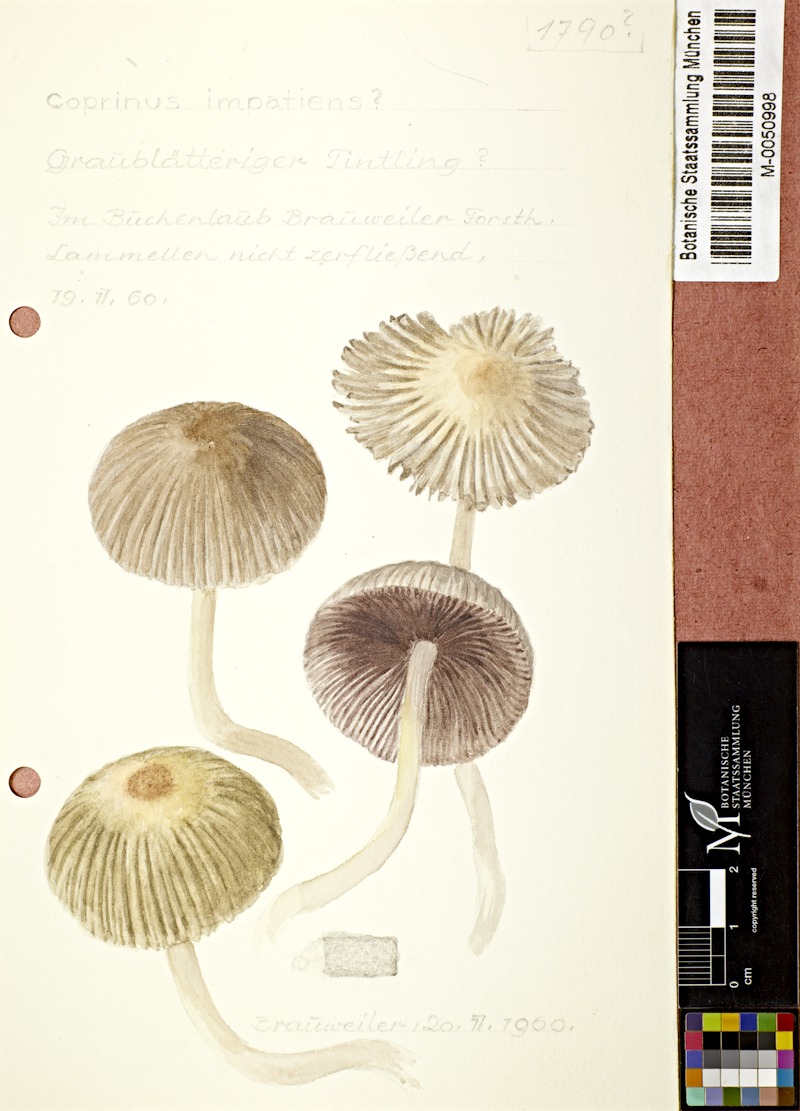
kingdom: Fungi
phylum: Basidiomycota
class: Agaricomycetes
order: Agaricales
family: Psathyrellaceae
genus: Tulosesus
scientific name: Tulosesus impatiens
